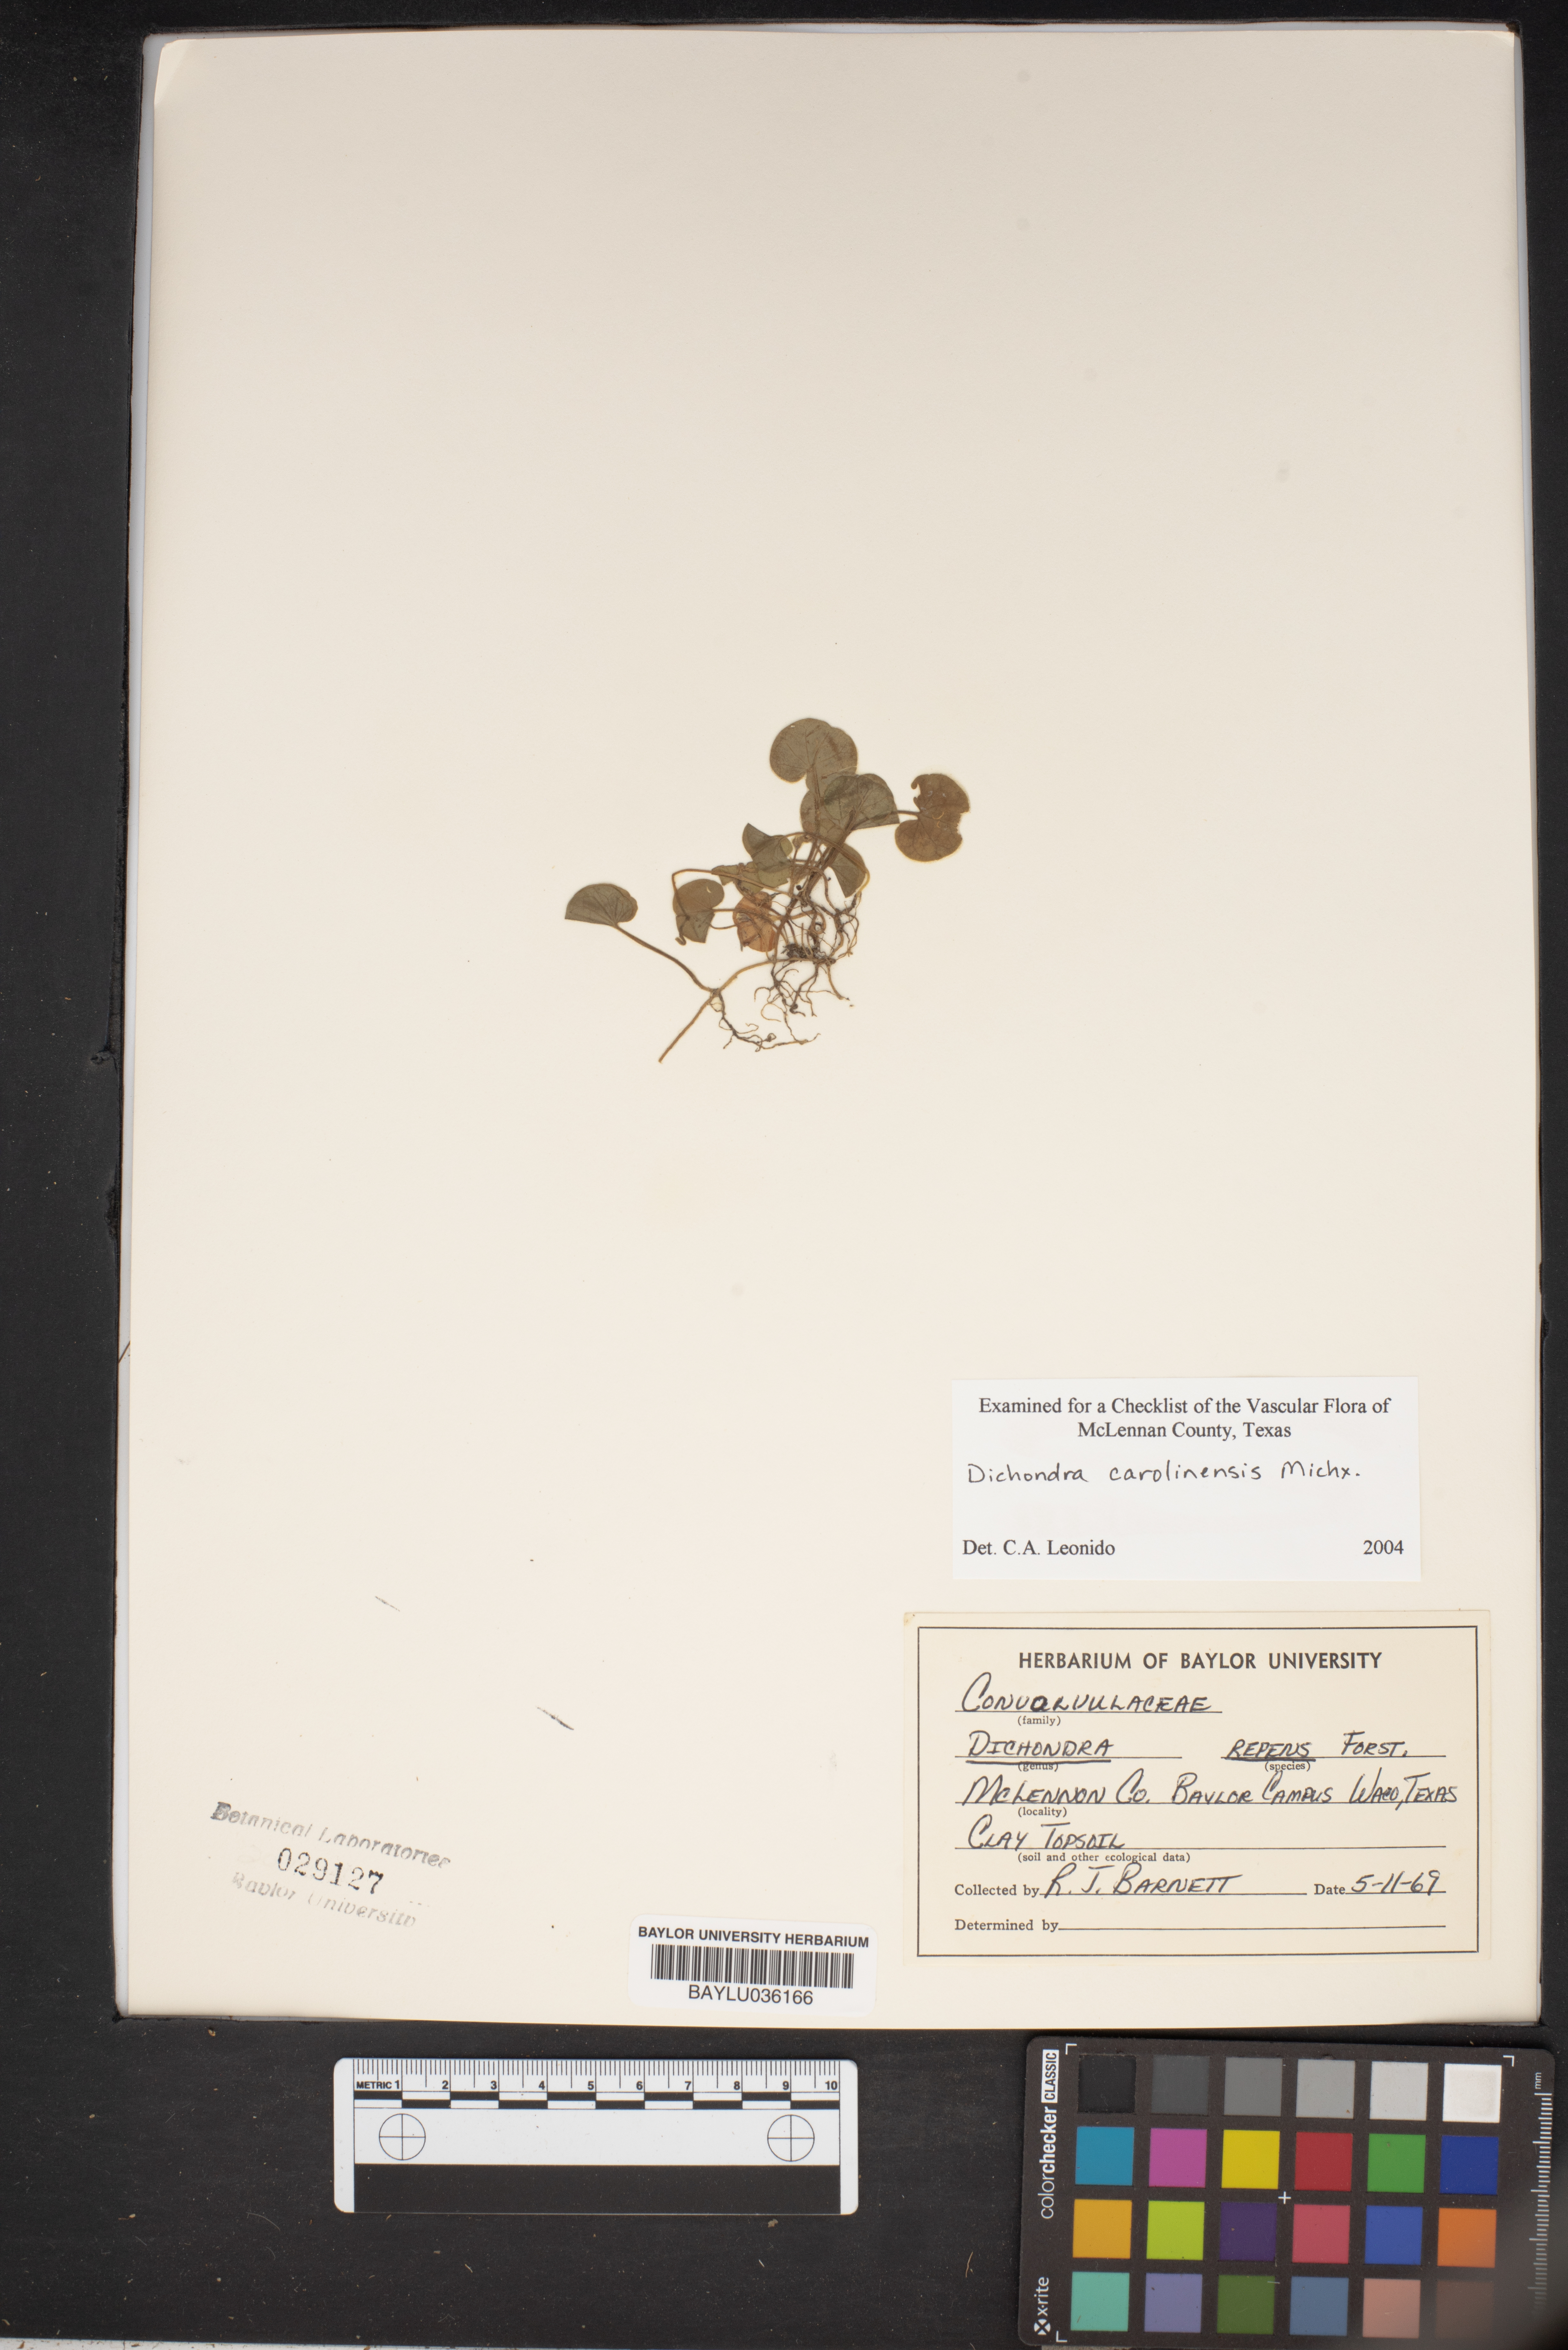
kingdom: Plantae
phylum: Tracheophyta
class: Magnoliopsida
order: Solanales
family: Convolvulaceae
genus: Dichondra
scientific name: Dichondra repens
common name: Kidneyweed
